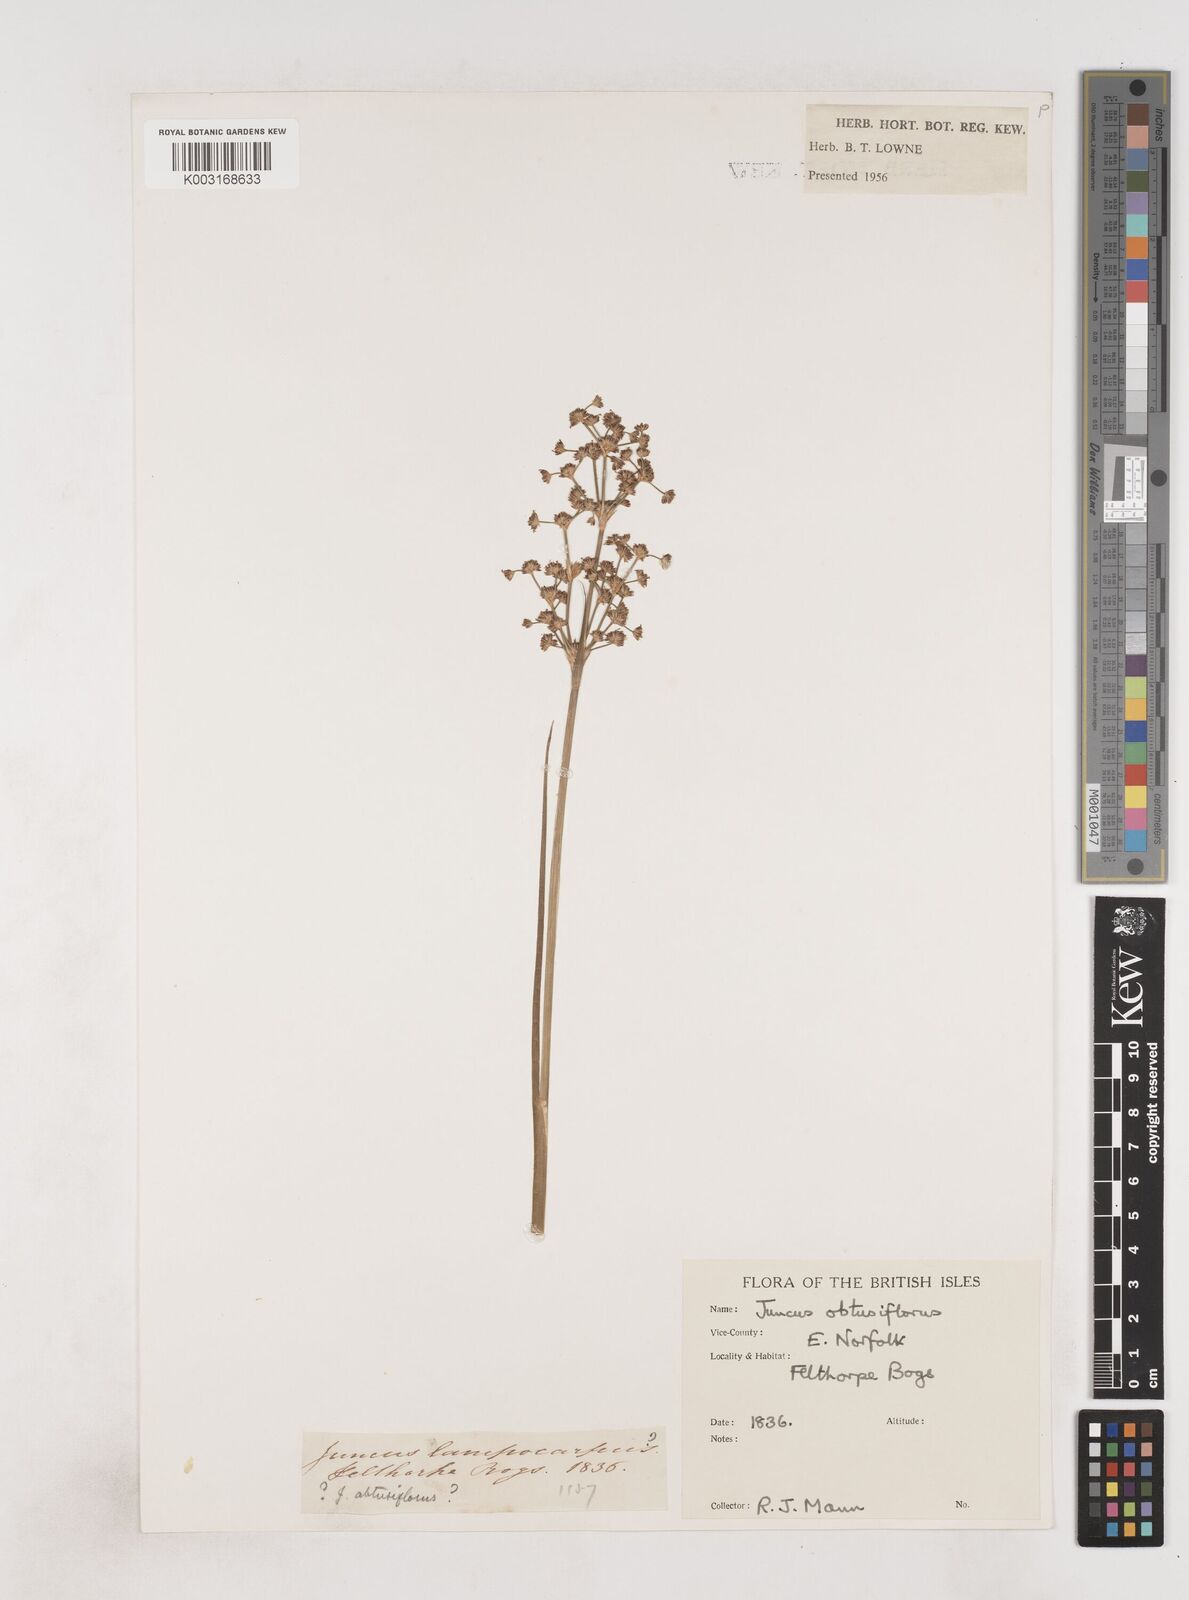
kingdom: Plantae
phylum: Tracheophyta
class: Liliopsida
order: Poales
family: Juncaceae
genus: Juncus
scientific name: Juncus subnodulosus
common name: Blunt-flowered rush
